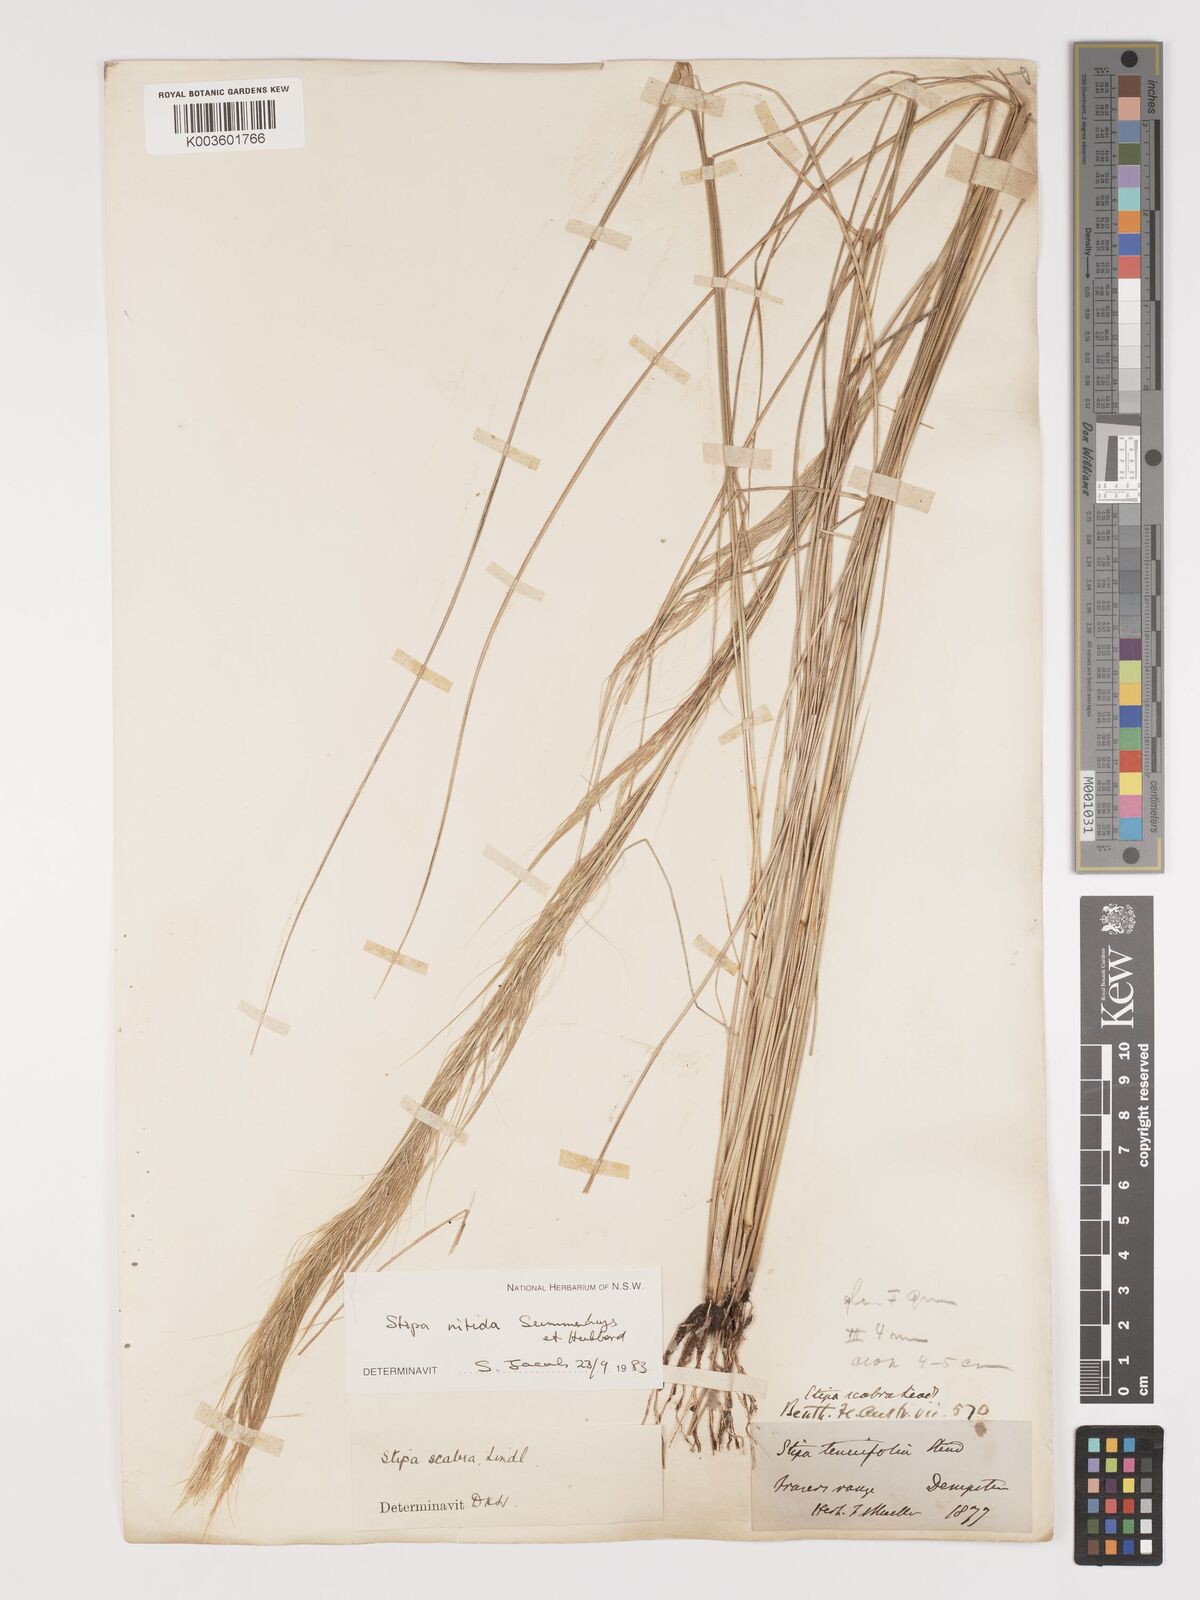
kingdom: Plantae
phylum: Tracheophyta
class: Liliopsida
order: Poales
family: Poaceae
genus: Austrostipa
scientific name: Austrostipa nitida
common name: Balcarra grass
